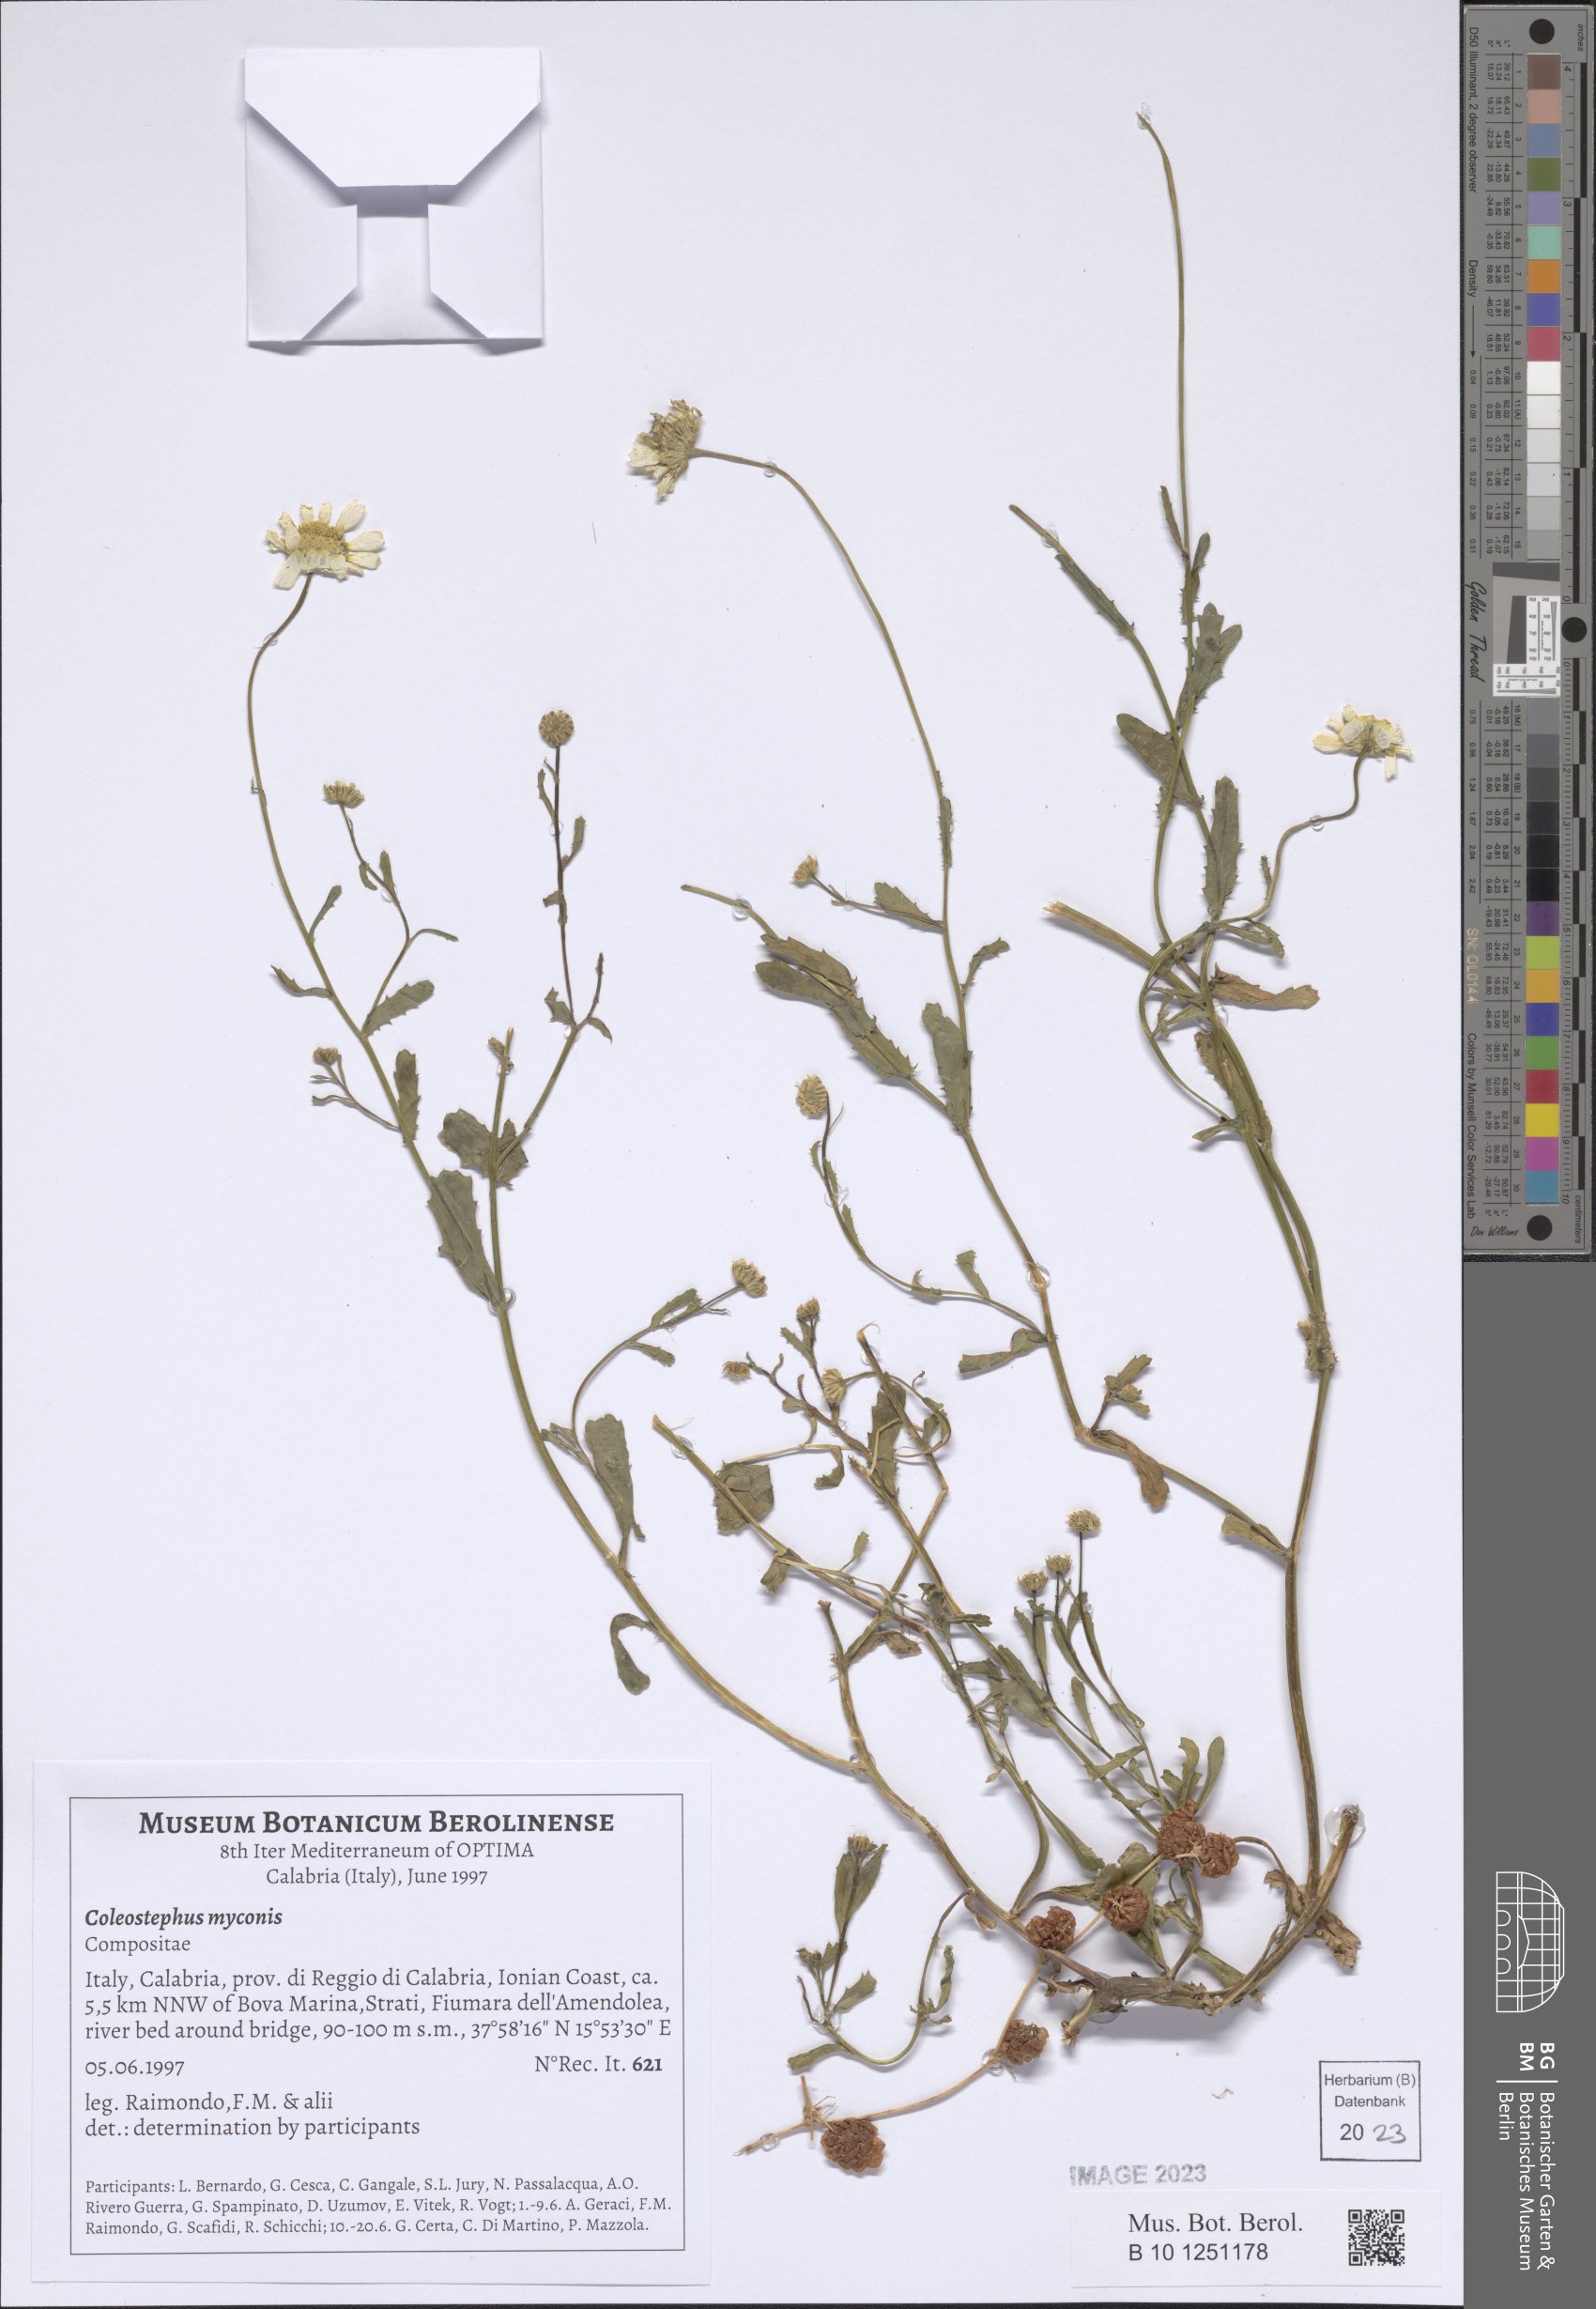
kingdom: Plantae
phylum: Tracheophyta
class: Magnoliopsida
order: Asterales
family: Asteraceae
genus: Coleostephus
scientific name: Coleostephus myconis
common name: Mediterranean marigold
